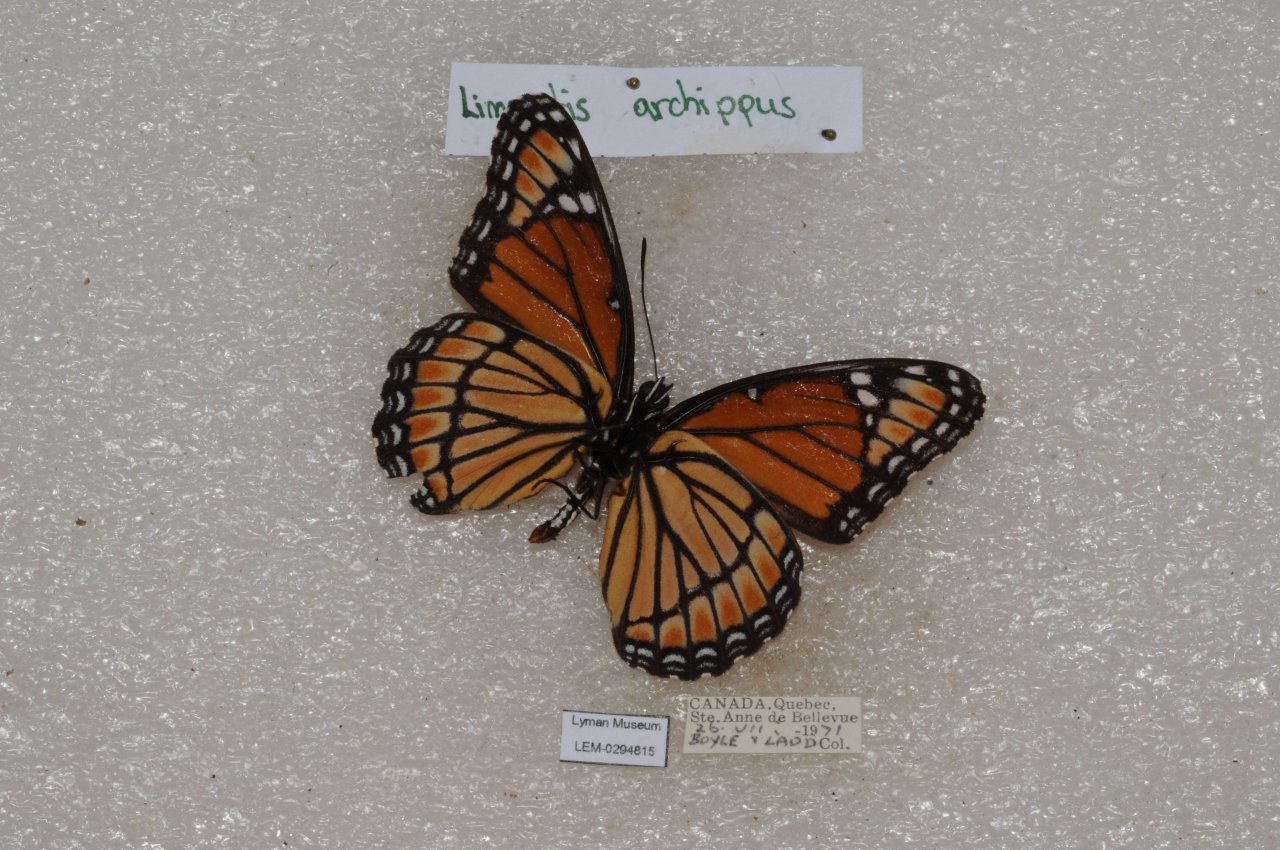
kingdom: Animalia
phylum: Arthropoda
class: Insecta
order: Lepidoptera
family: Nymphalidae
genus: Limenitis
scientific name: Limenitis archippus
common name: Viceroy
